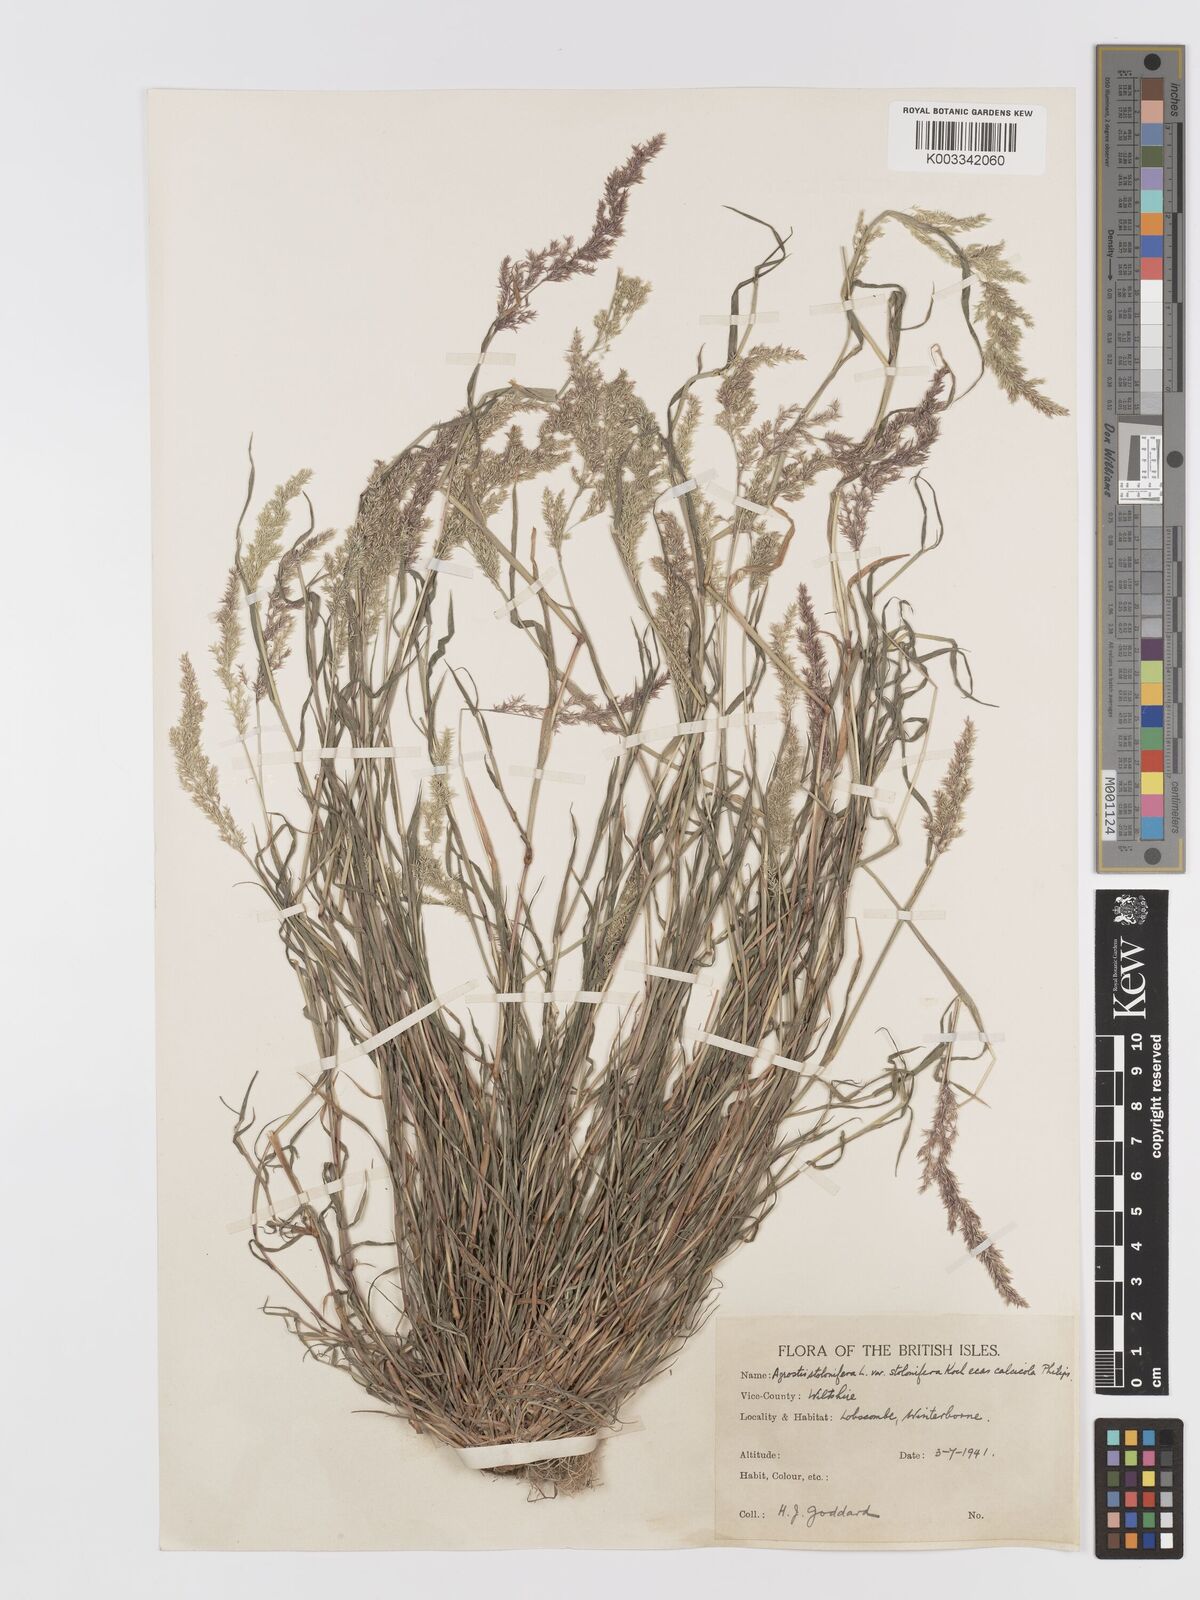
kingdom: Plantae
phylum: Tracheophyta
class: Liliopsida
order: Poales
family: Poaceae
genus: Agrostis
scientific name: Agrostis stolonifera
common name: Creeping bentgrass
